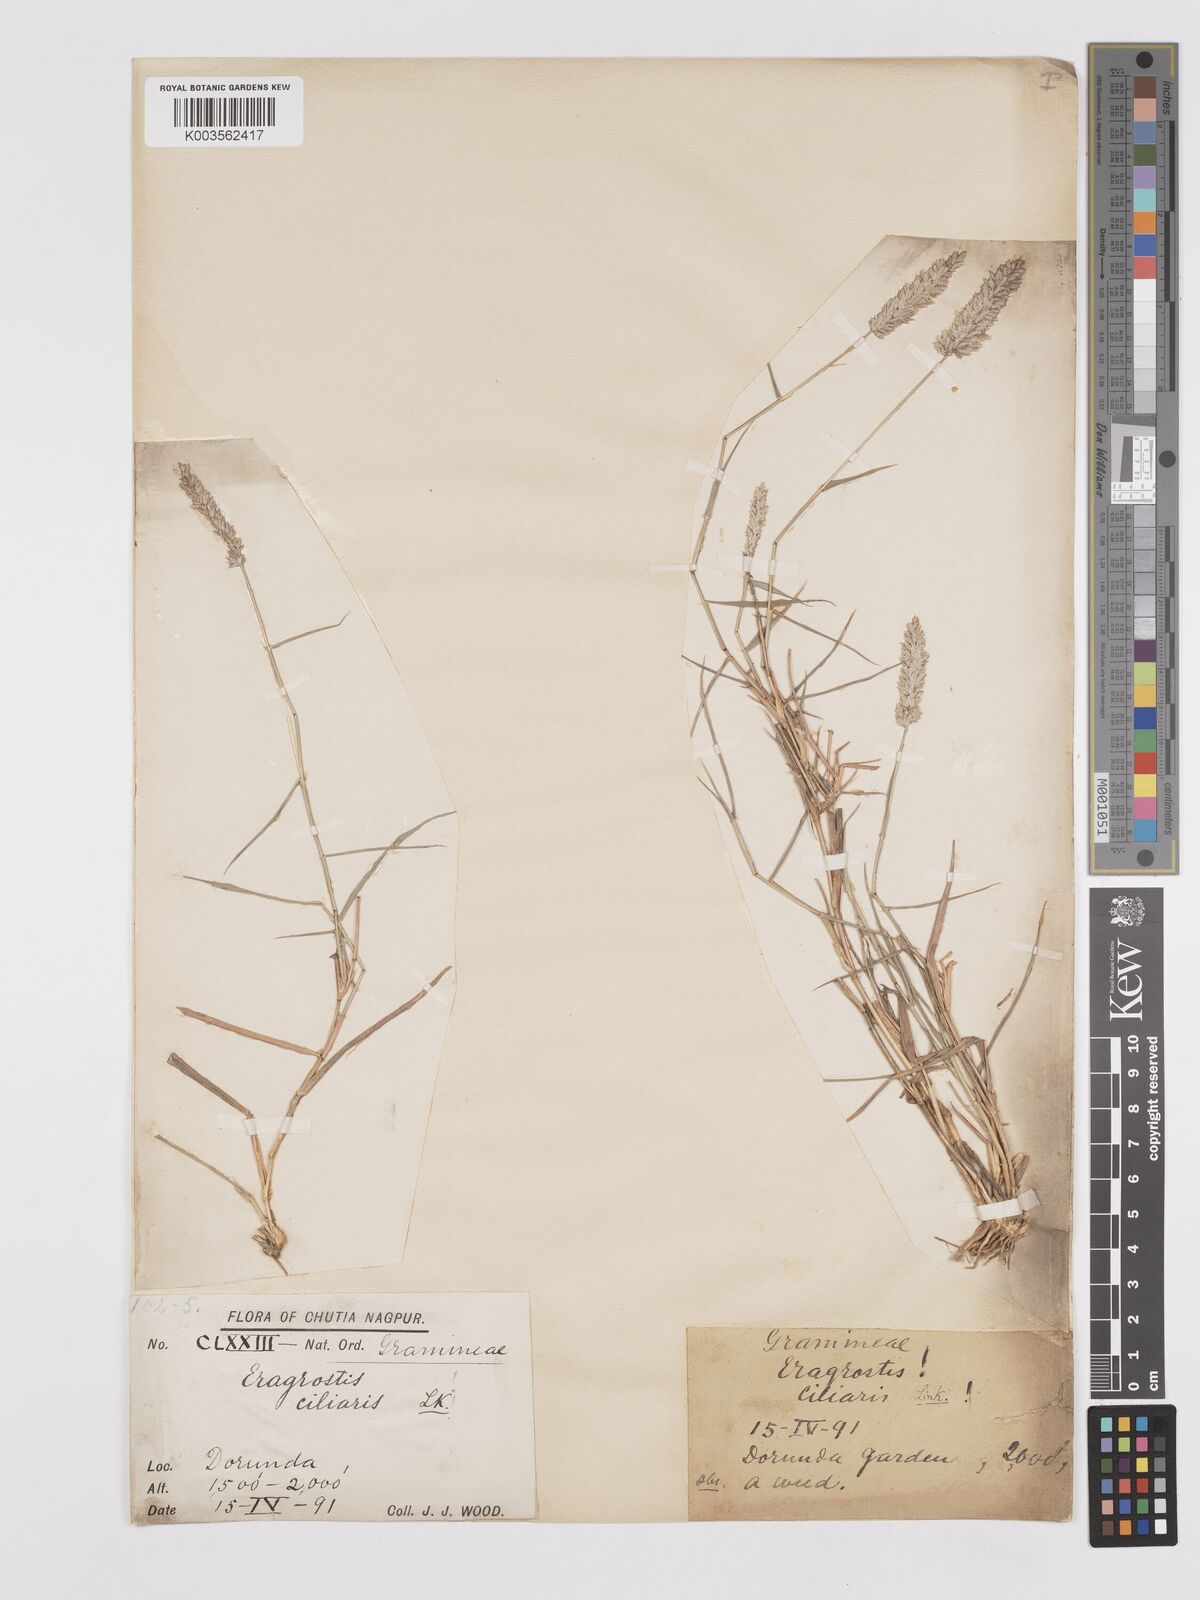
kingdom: Plantae
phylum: Tracheophyta
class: Liliopsida
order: Poales
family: Poaceae
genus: Eragrostis
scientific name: Eragrostis coarctata
